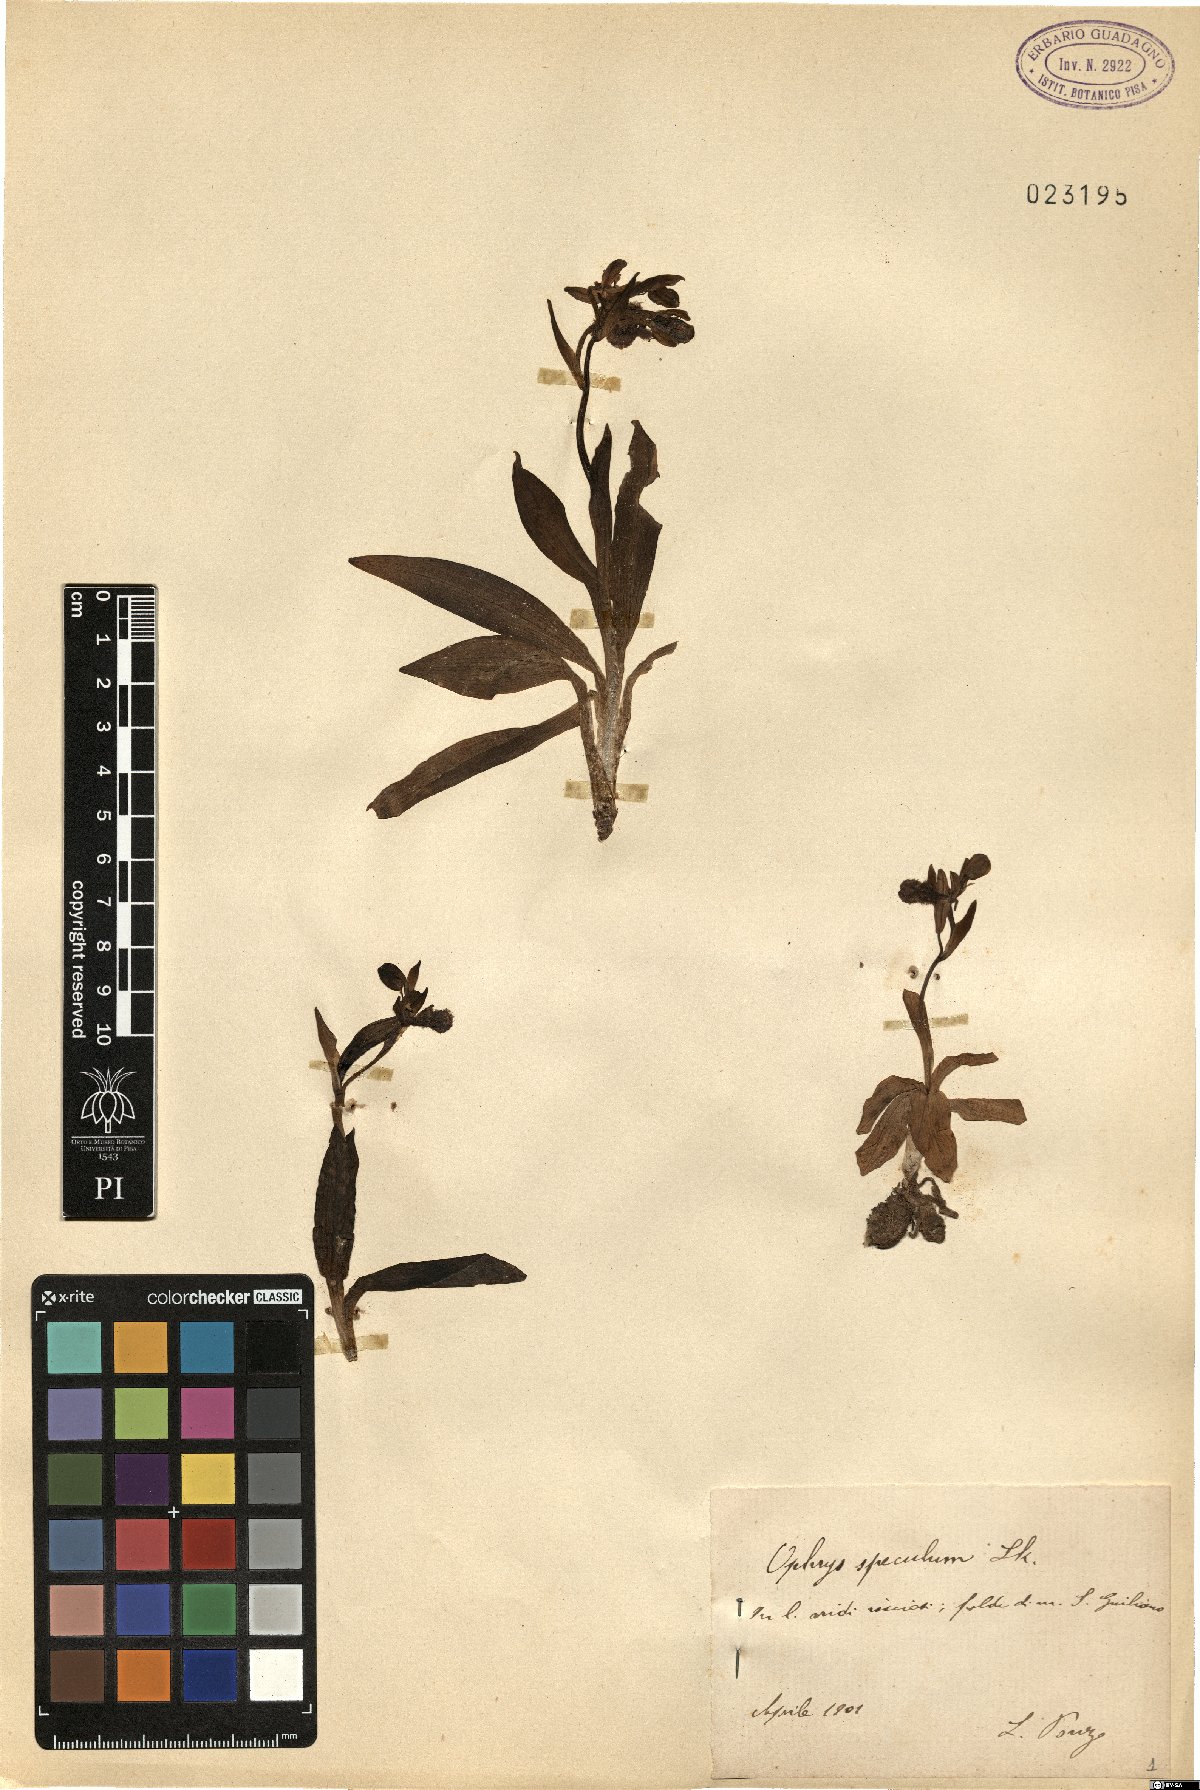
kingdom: Plantae
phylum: Tracheophyta
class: Liliopsida
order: Asparagales
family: Orchidaceae
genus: Ophrys
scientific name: Ophrys speculum
